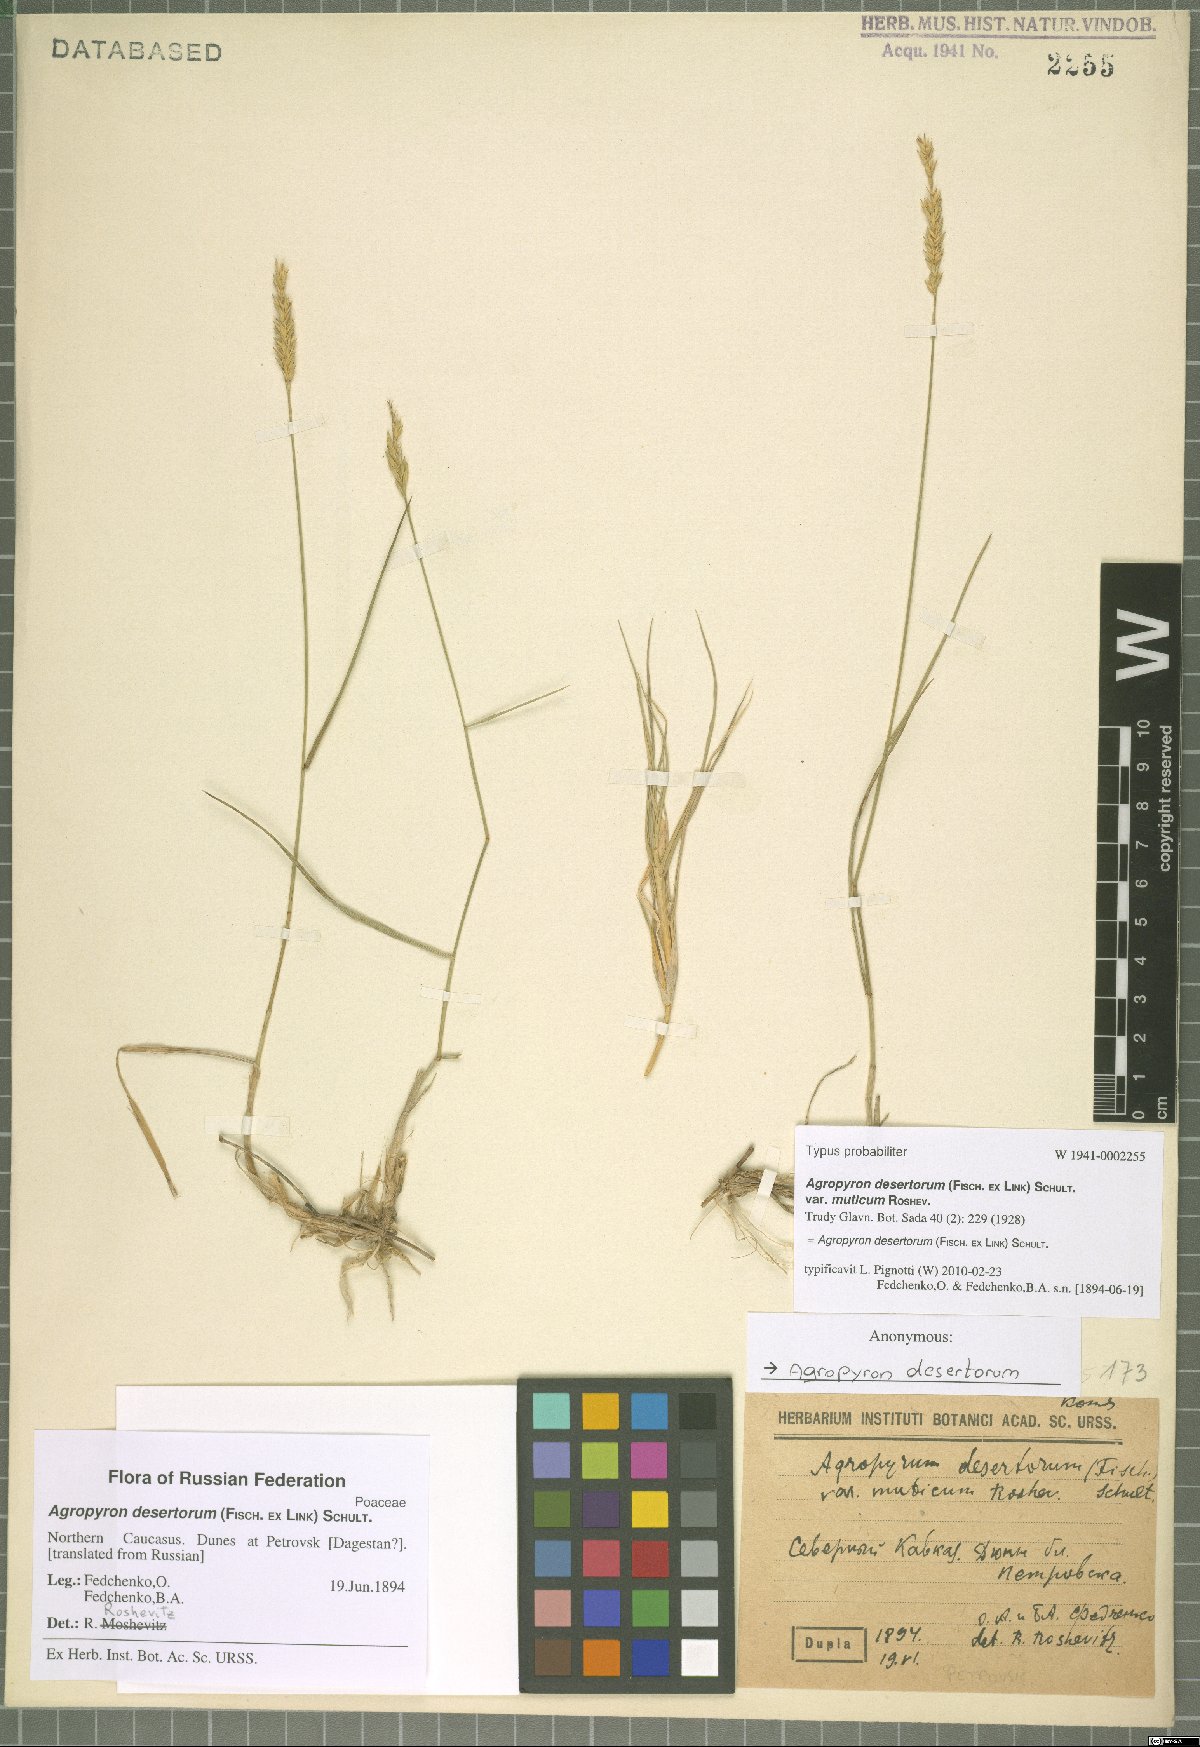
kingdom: Plantae
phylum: Tracheophyta
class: Liliopsida
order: Poales
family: Poaceae
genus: Agropyron
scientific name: Agropyron desertorum
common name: Desert wheatgrass
